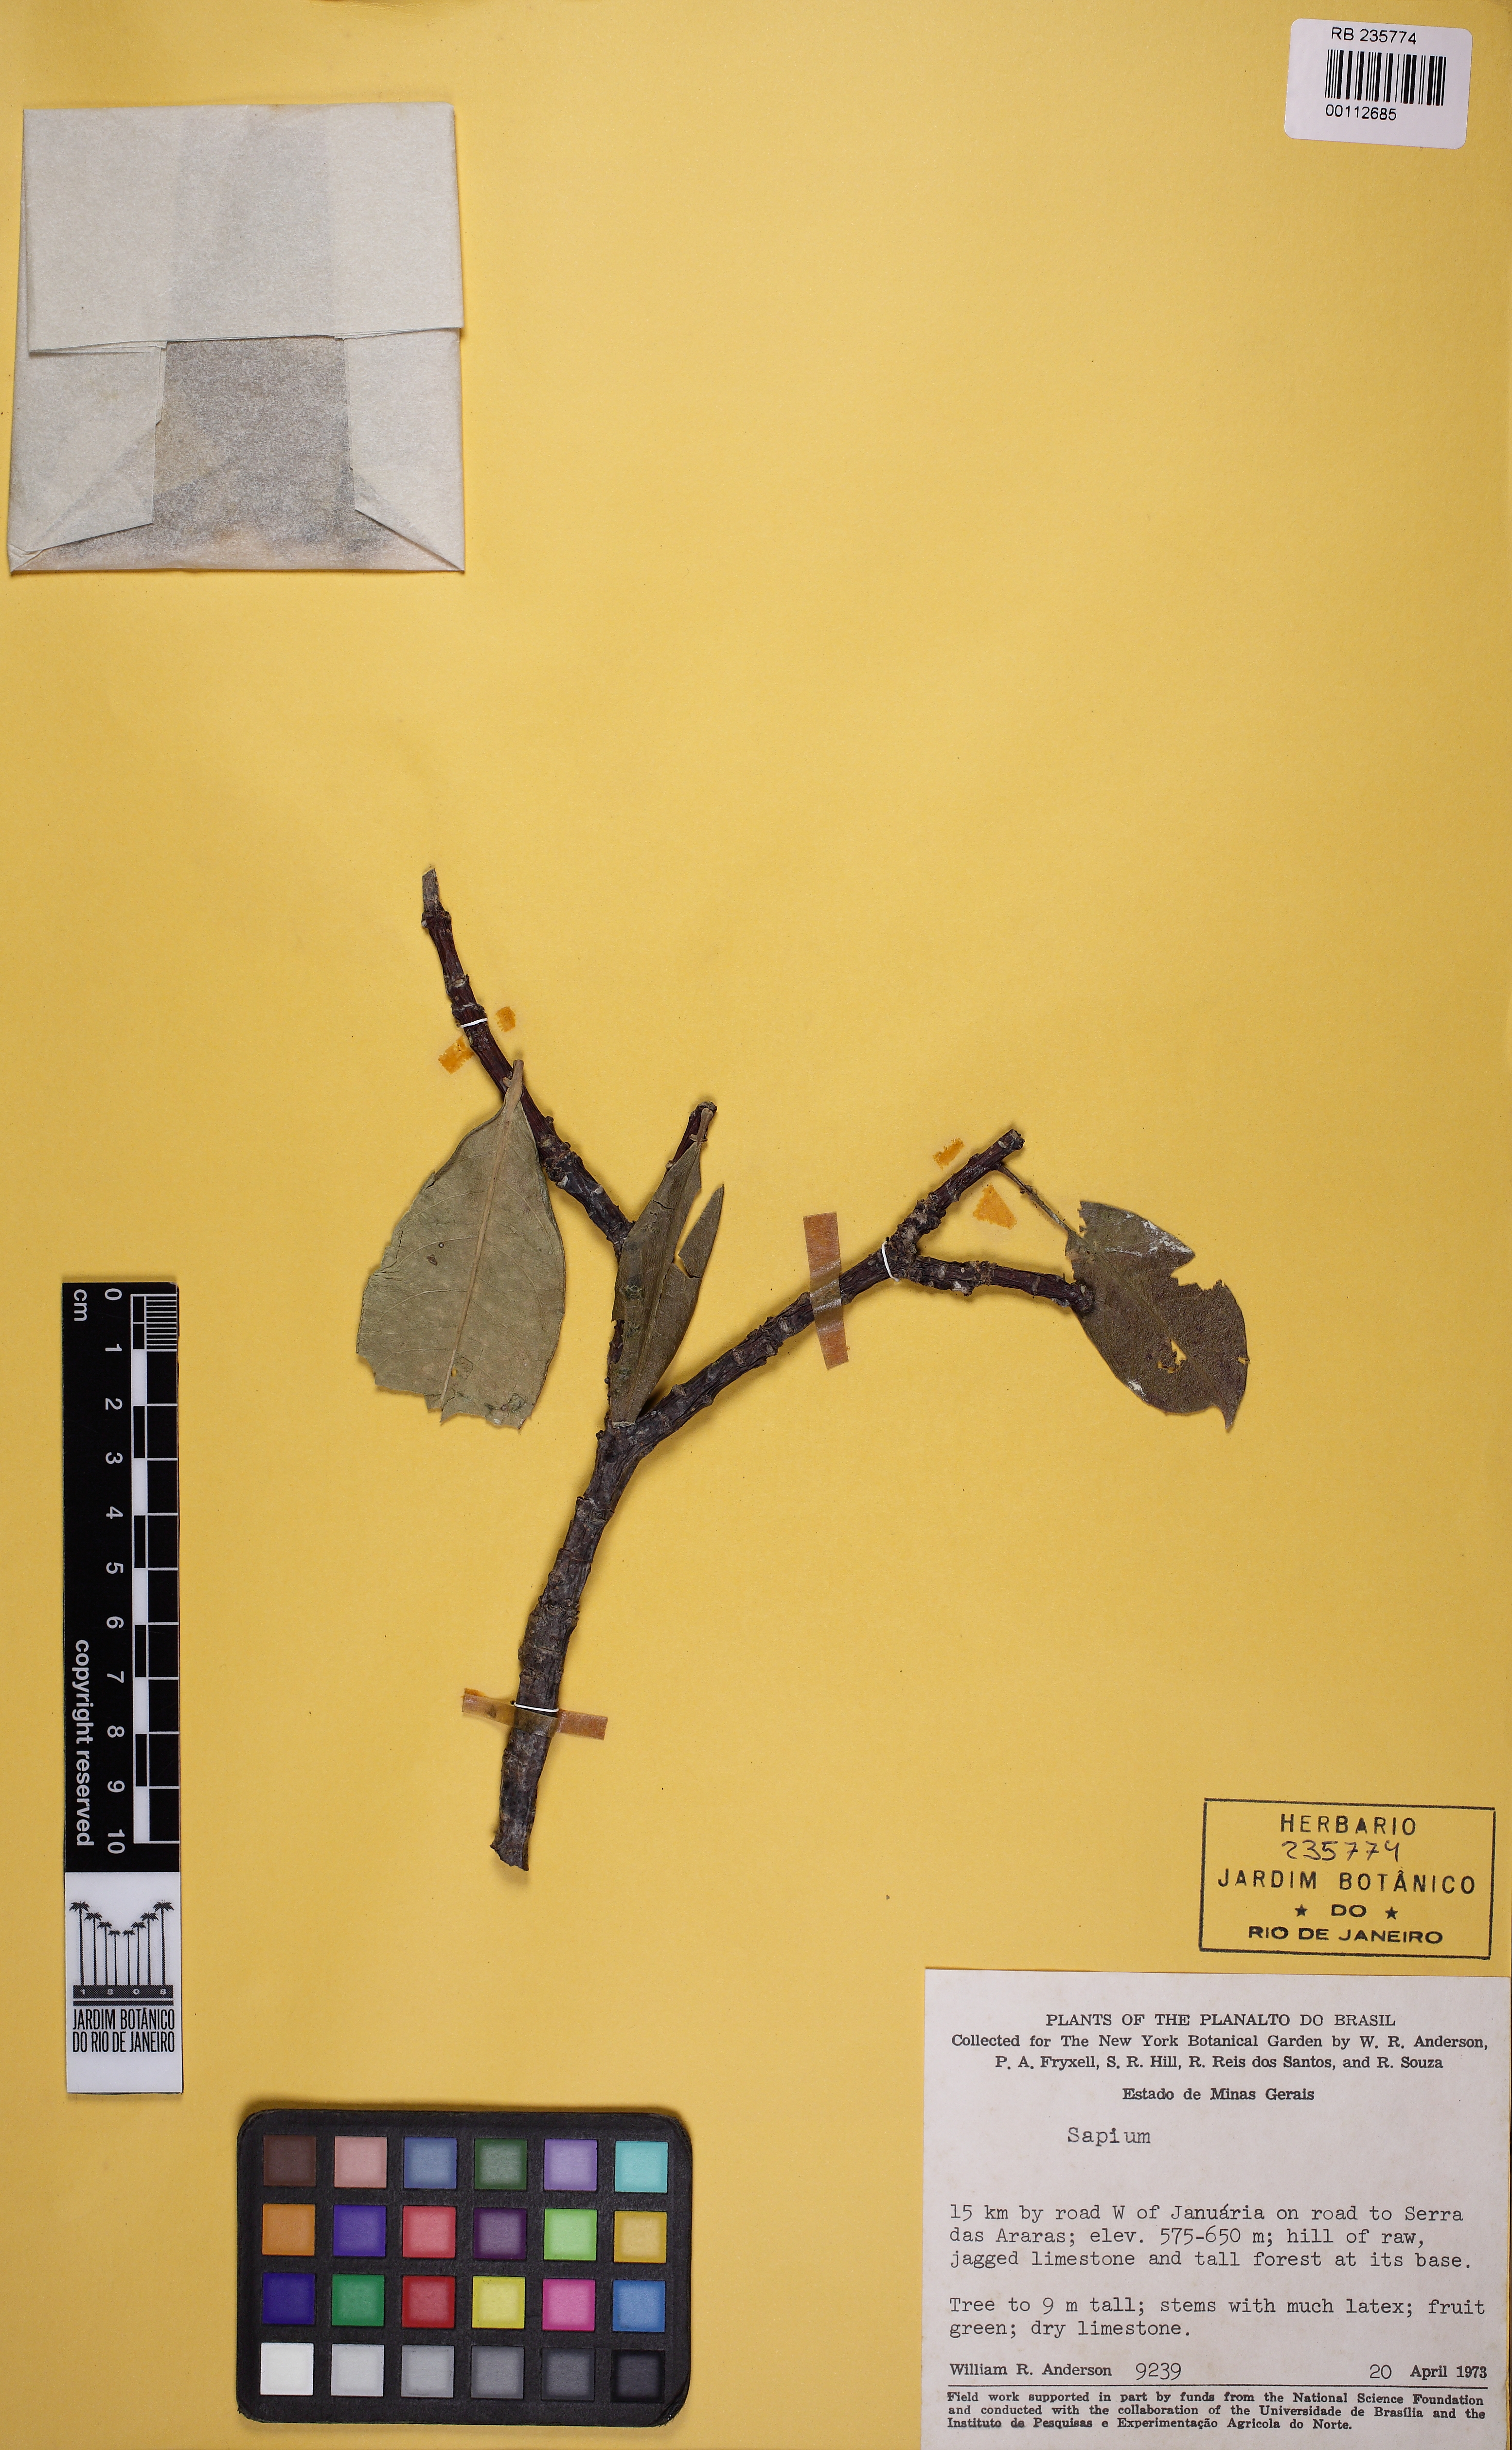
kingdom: Plantae
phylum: Tracheophyta
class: Magnoliopsida
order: Malpighiales
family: Euphorbiaceae
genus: Sapium
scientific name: Sapium
